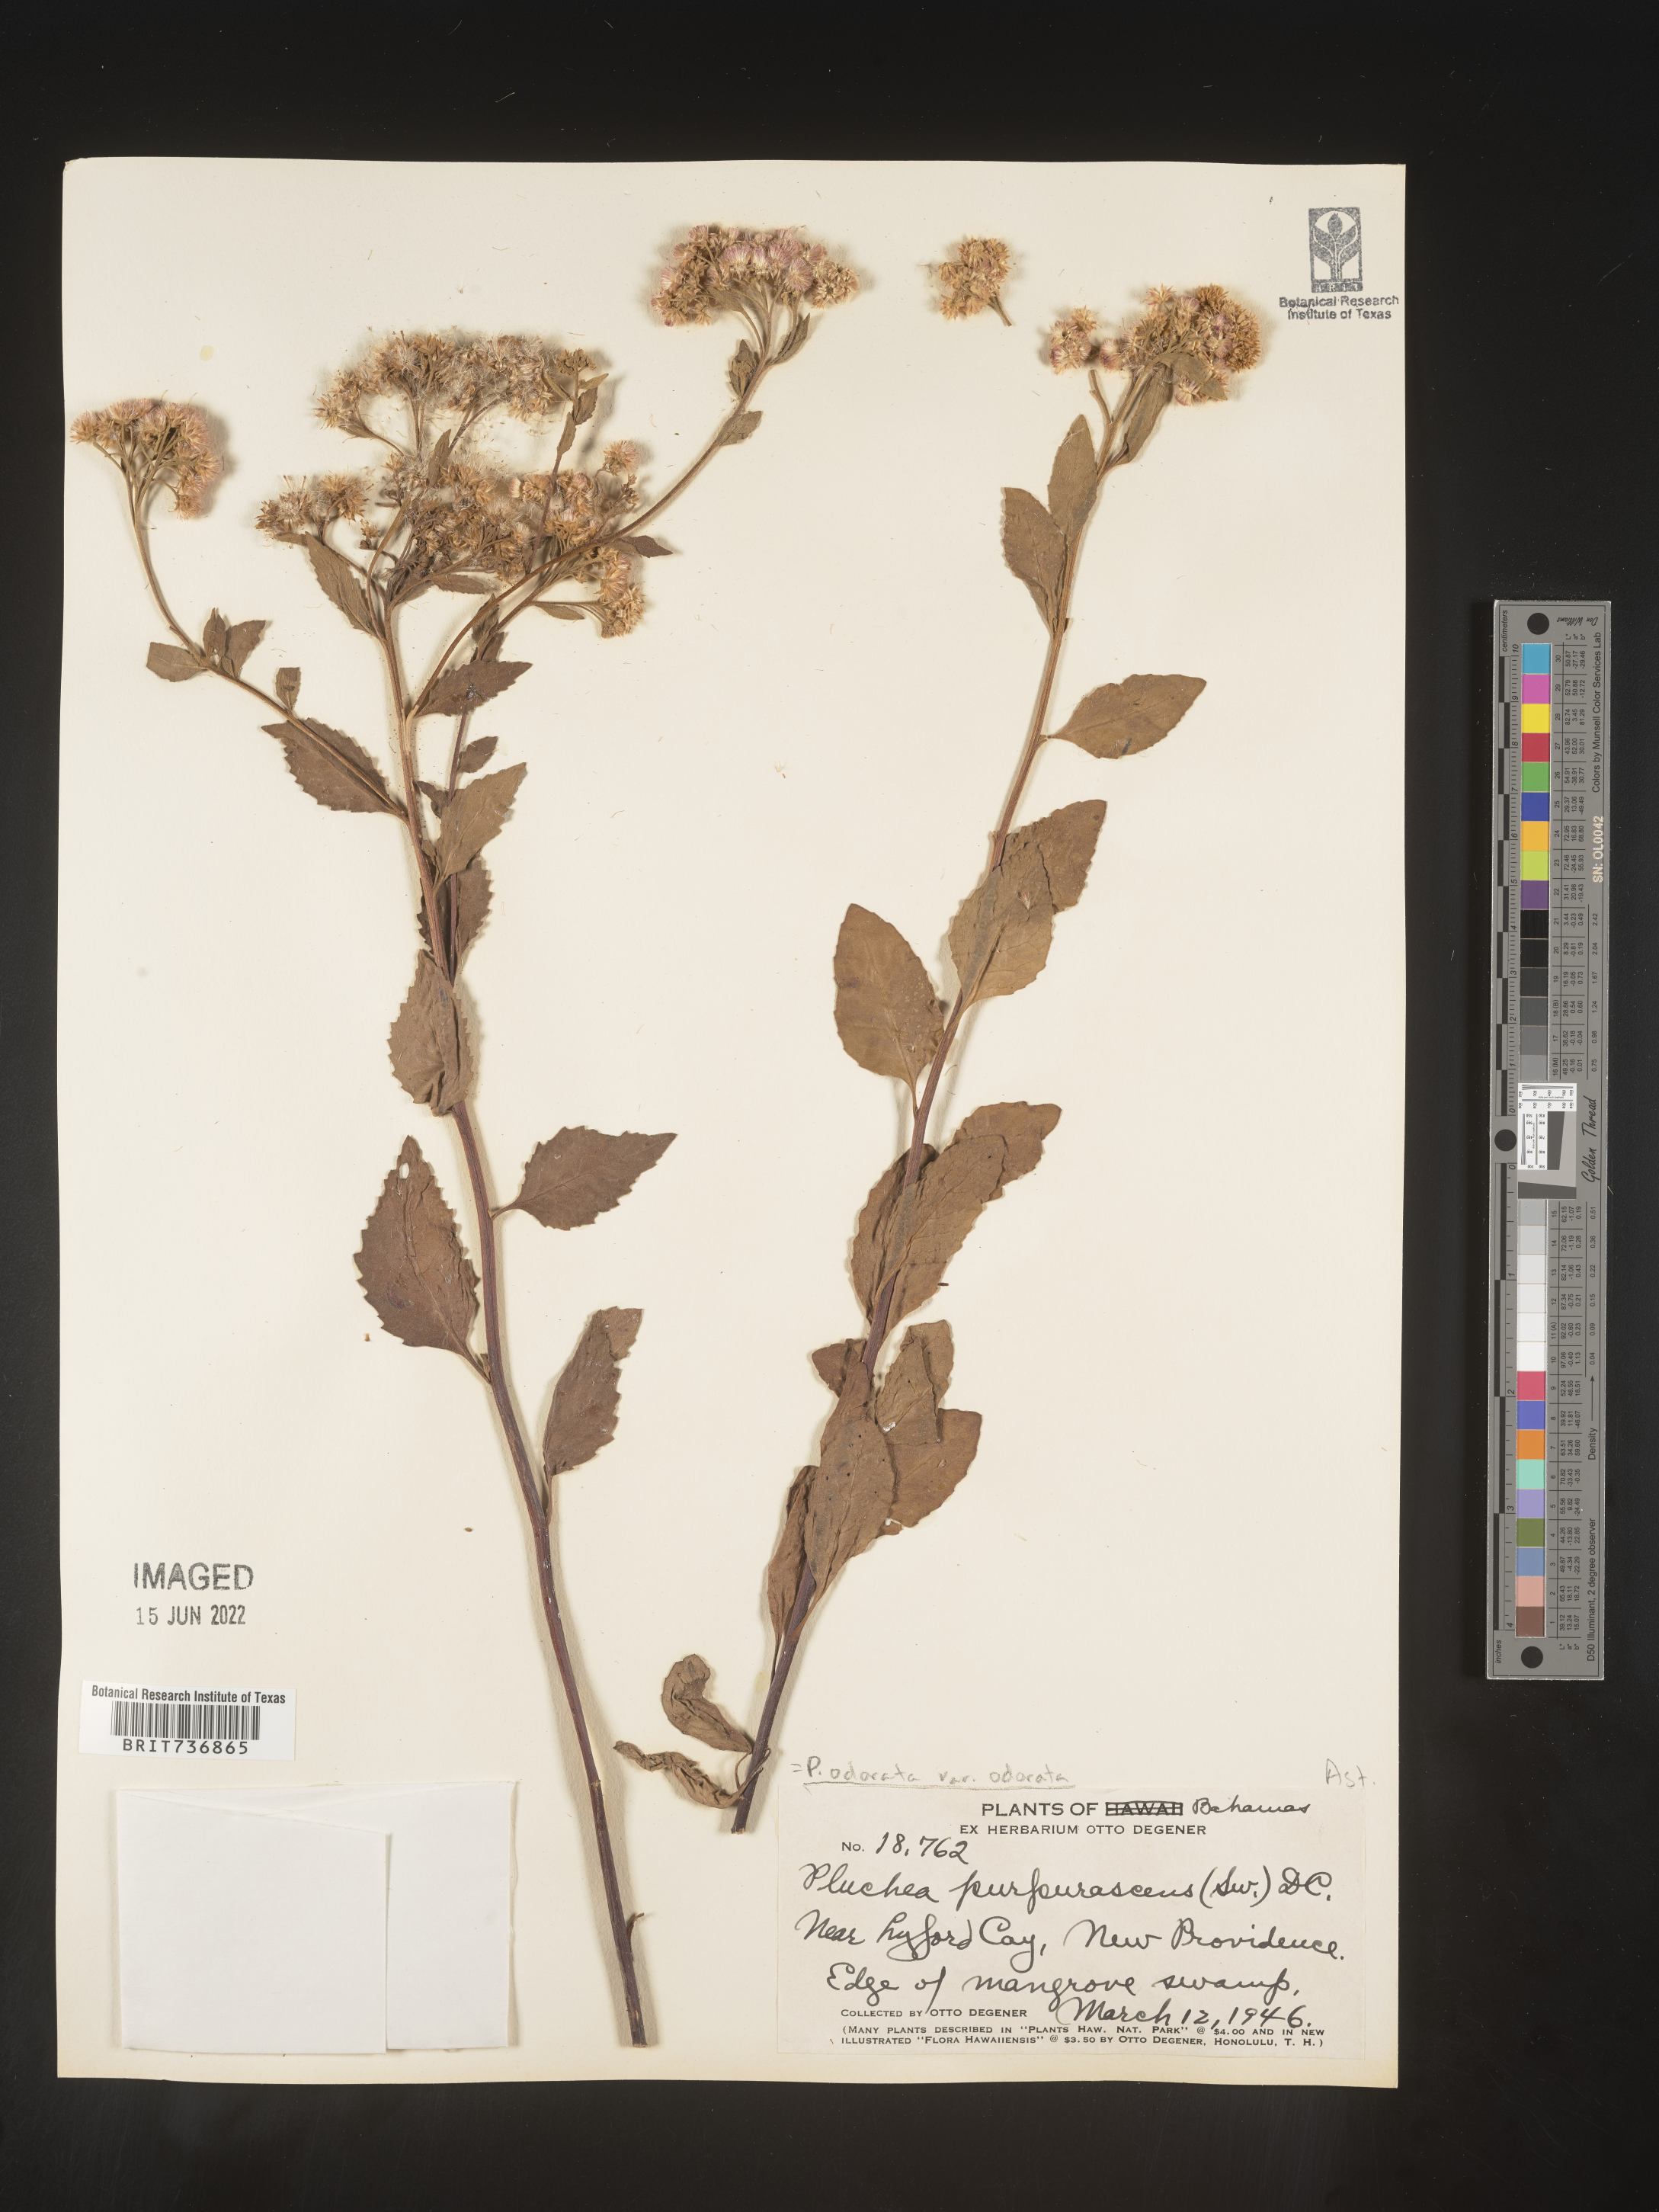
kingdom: Plantae
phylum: Tracheophyta
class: Magnoliopsida
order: Asterales
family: Asteraceae
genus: Pluchea
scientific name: Pluchea
